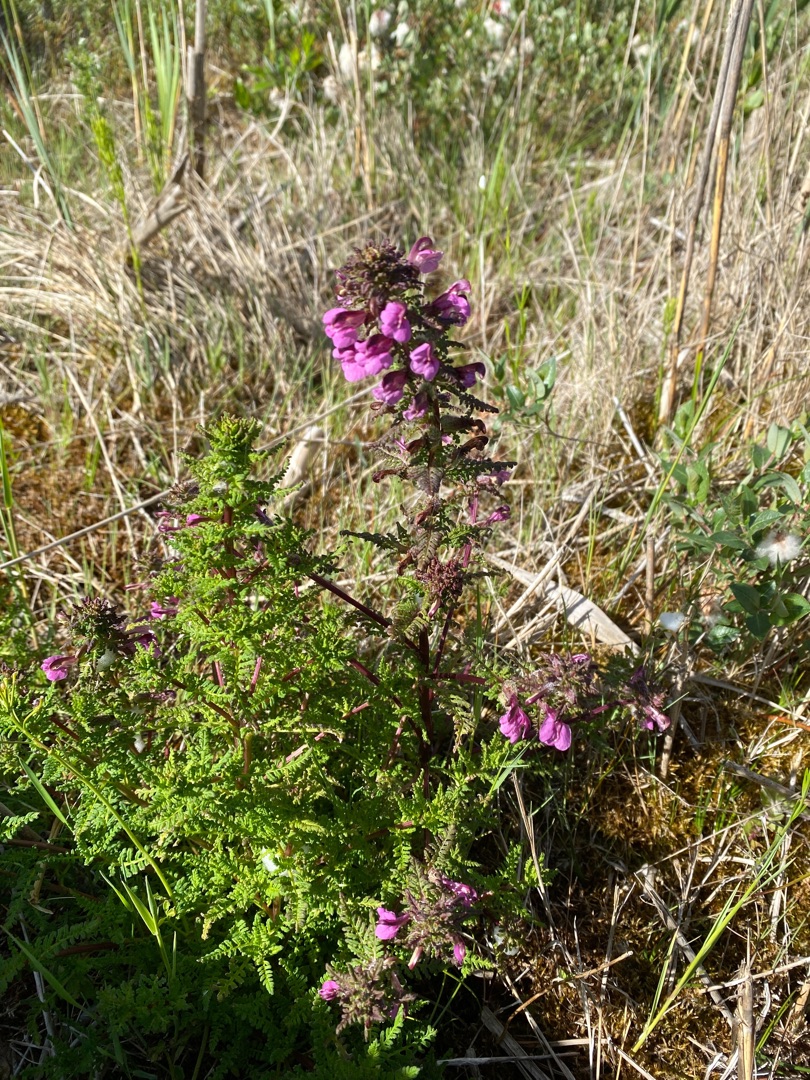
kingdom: Plantae
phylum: Tracheophyta
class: Magnoliopsida
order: Lamiales
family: Orobanchaceae
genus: Pedicularis
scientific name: Pedicularis palustris
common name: Eng-troldurt
